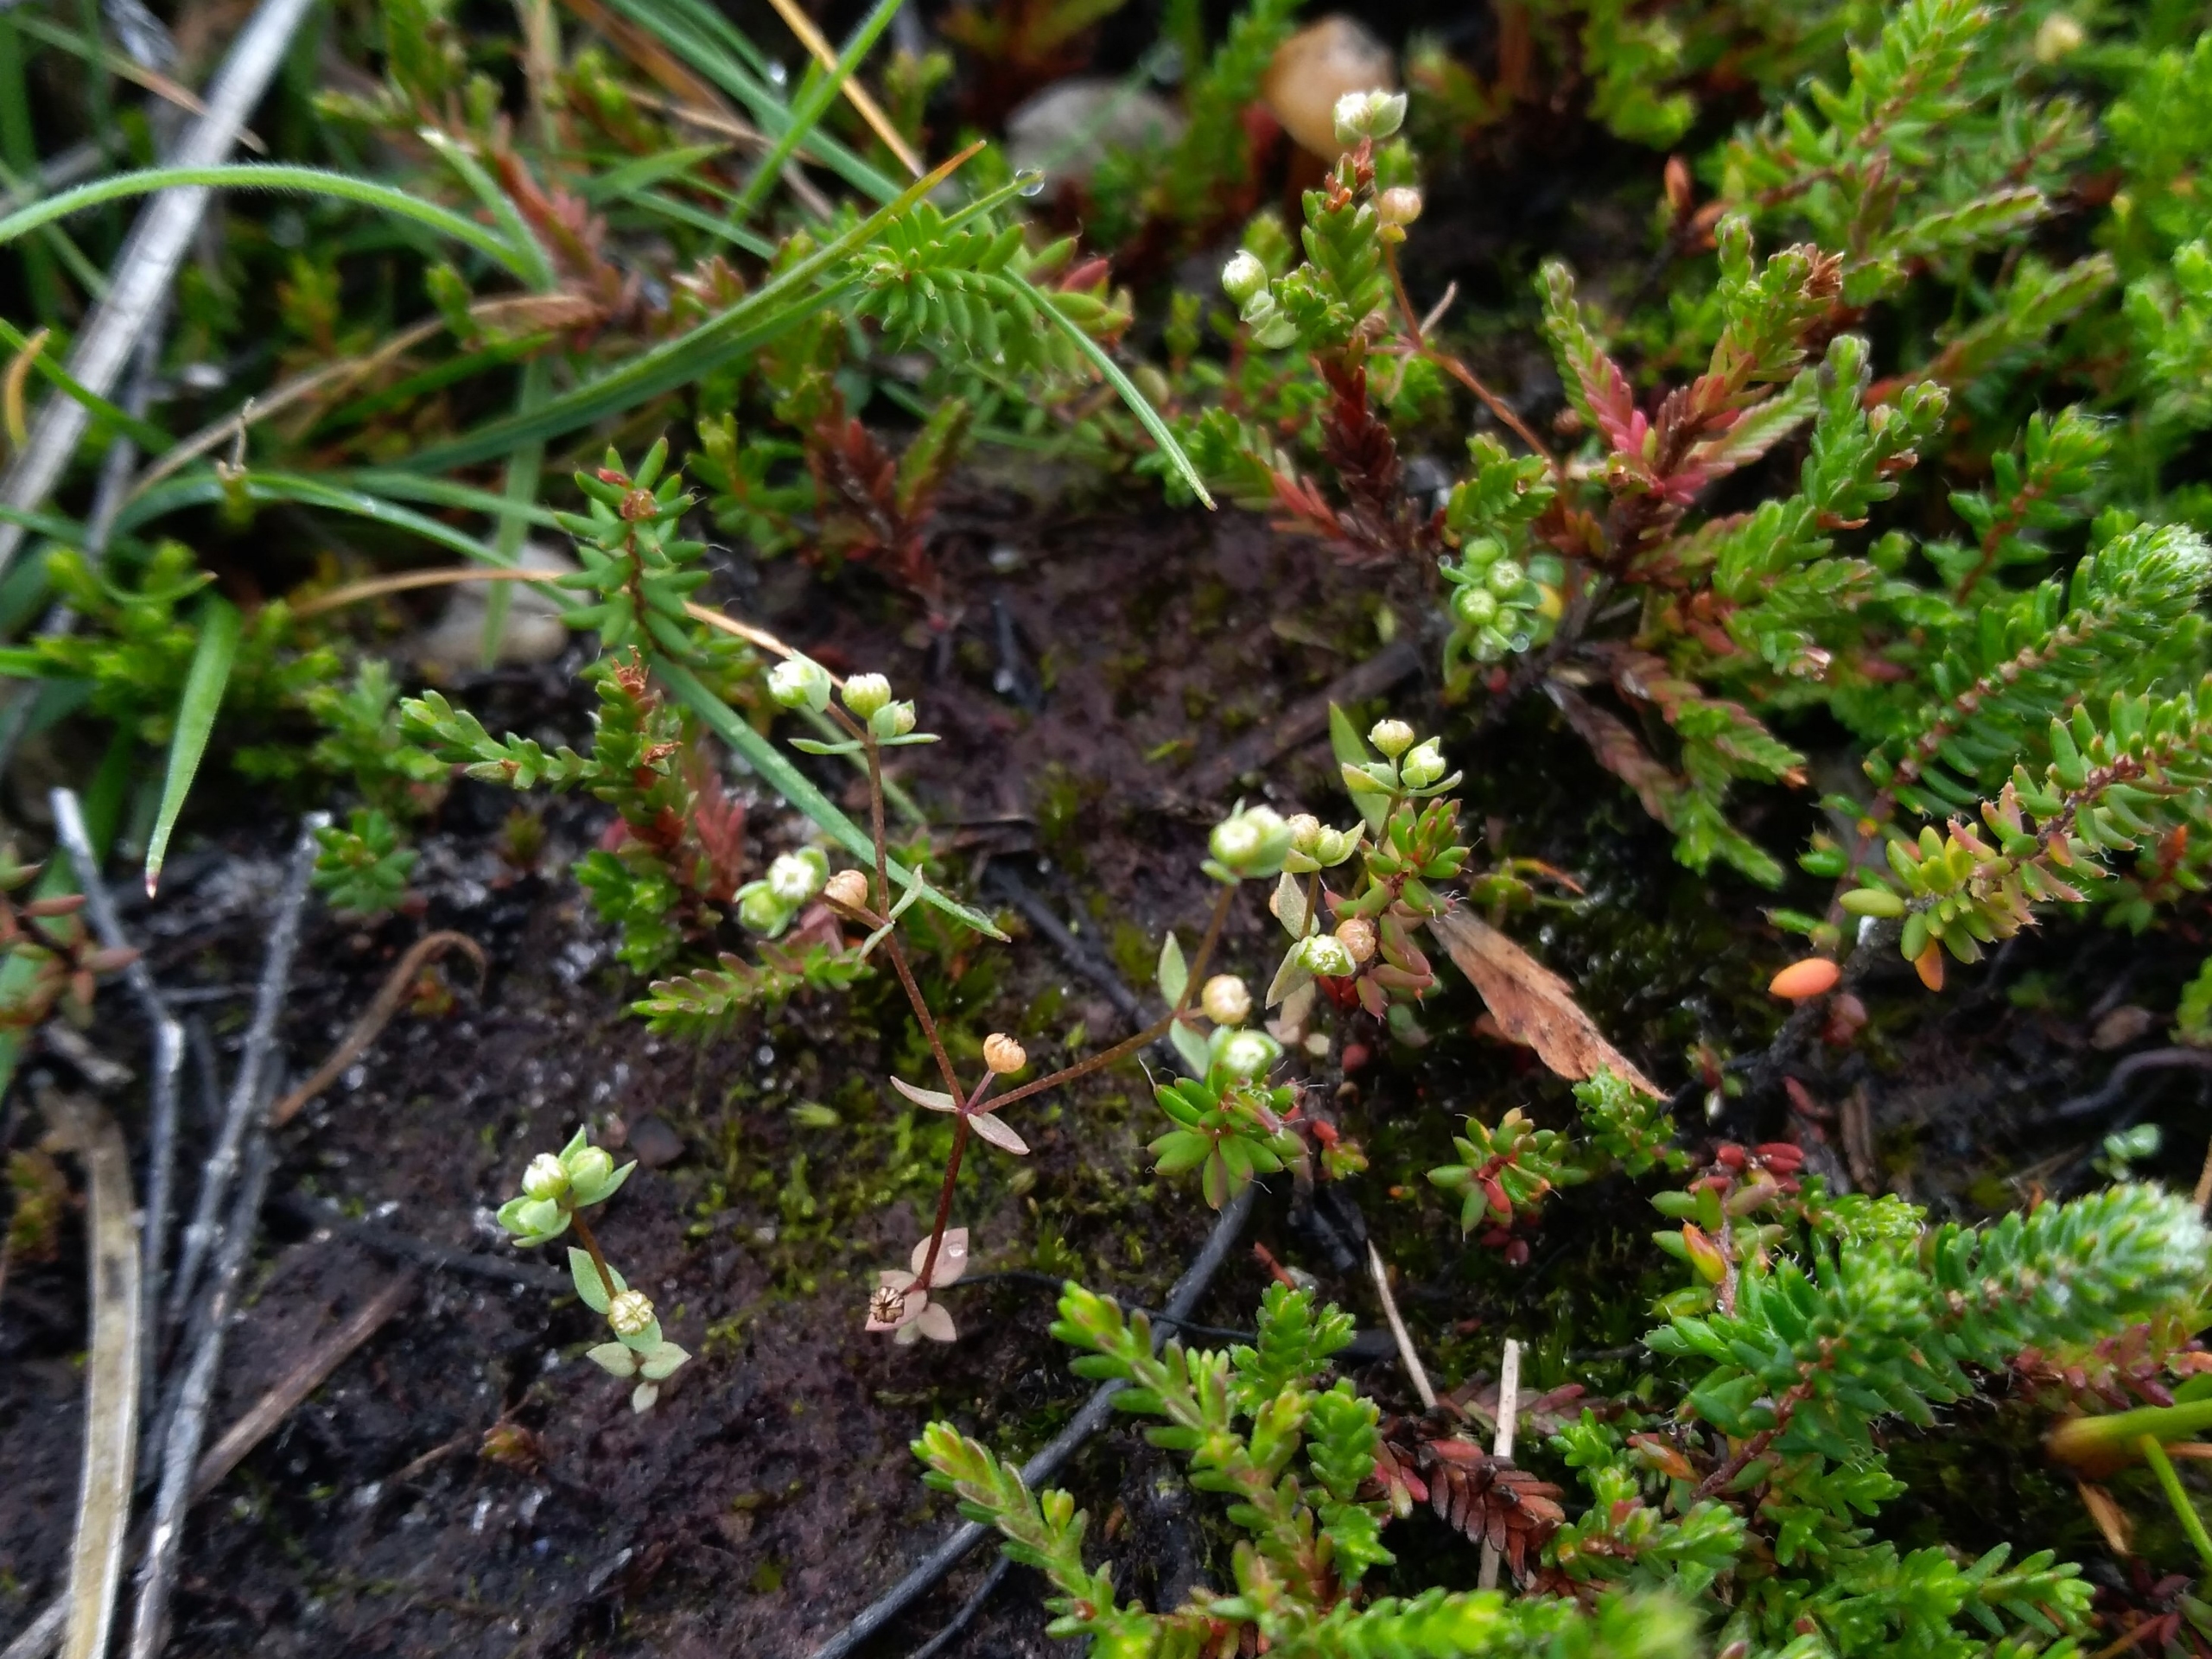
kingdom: Plantae
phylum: Tracheophyta
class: Magnoliopsida
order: Malpighiales
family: Linaceae
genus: Radiola
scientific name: Radiola linoides
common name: Tusindfrø
